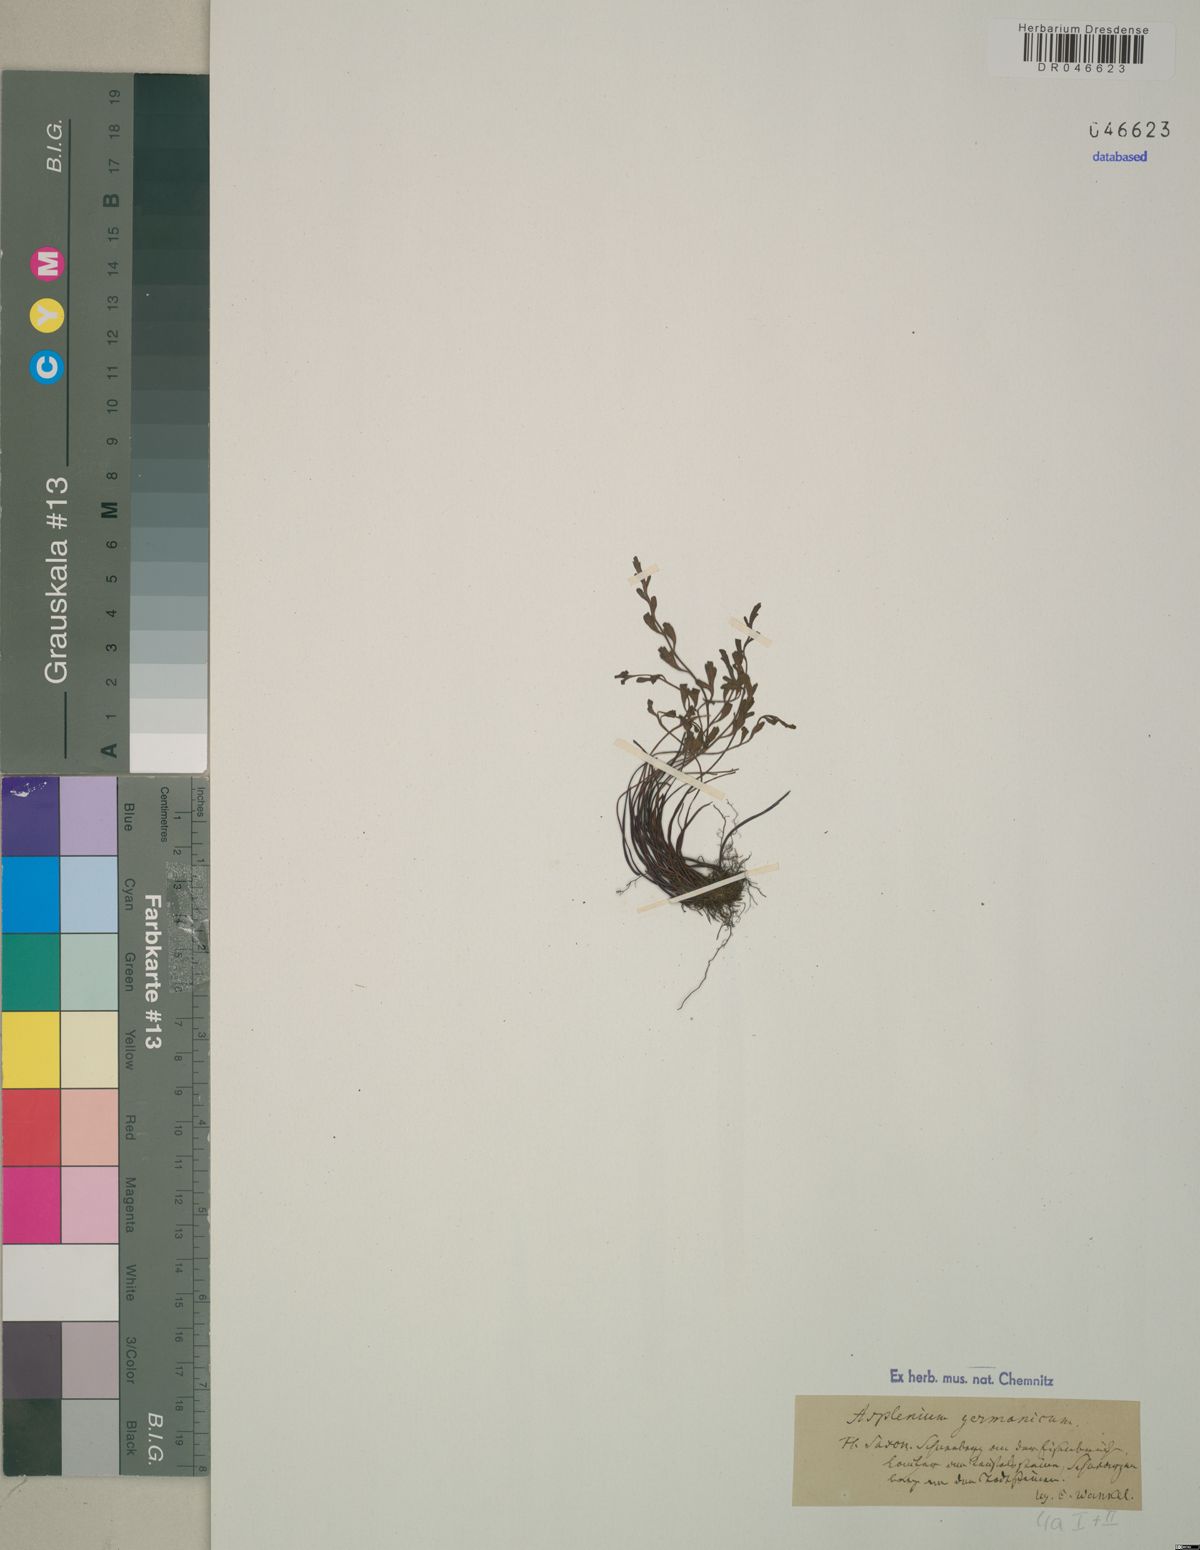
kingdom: Plantae
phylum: Tracheophyta
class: Polypodiopsida
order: Polypodiales
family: Aspleniaceae
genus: Asplenium
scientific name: Asplenium
